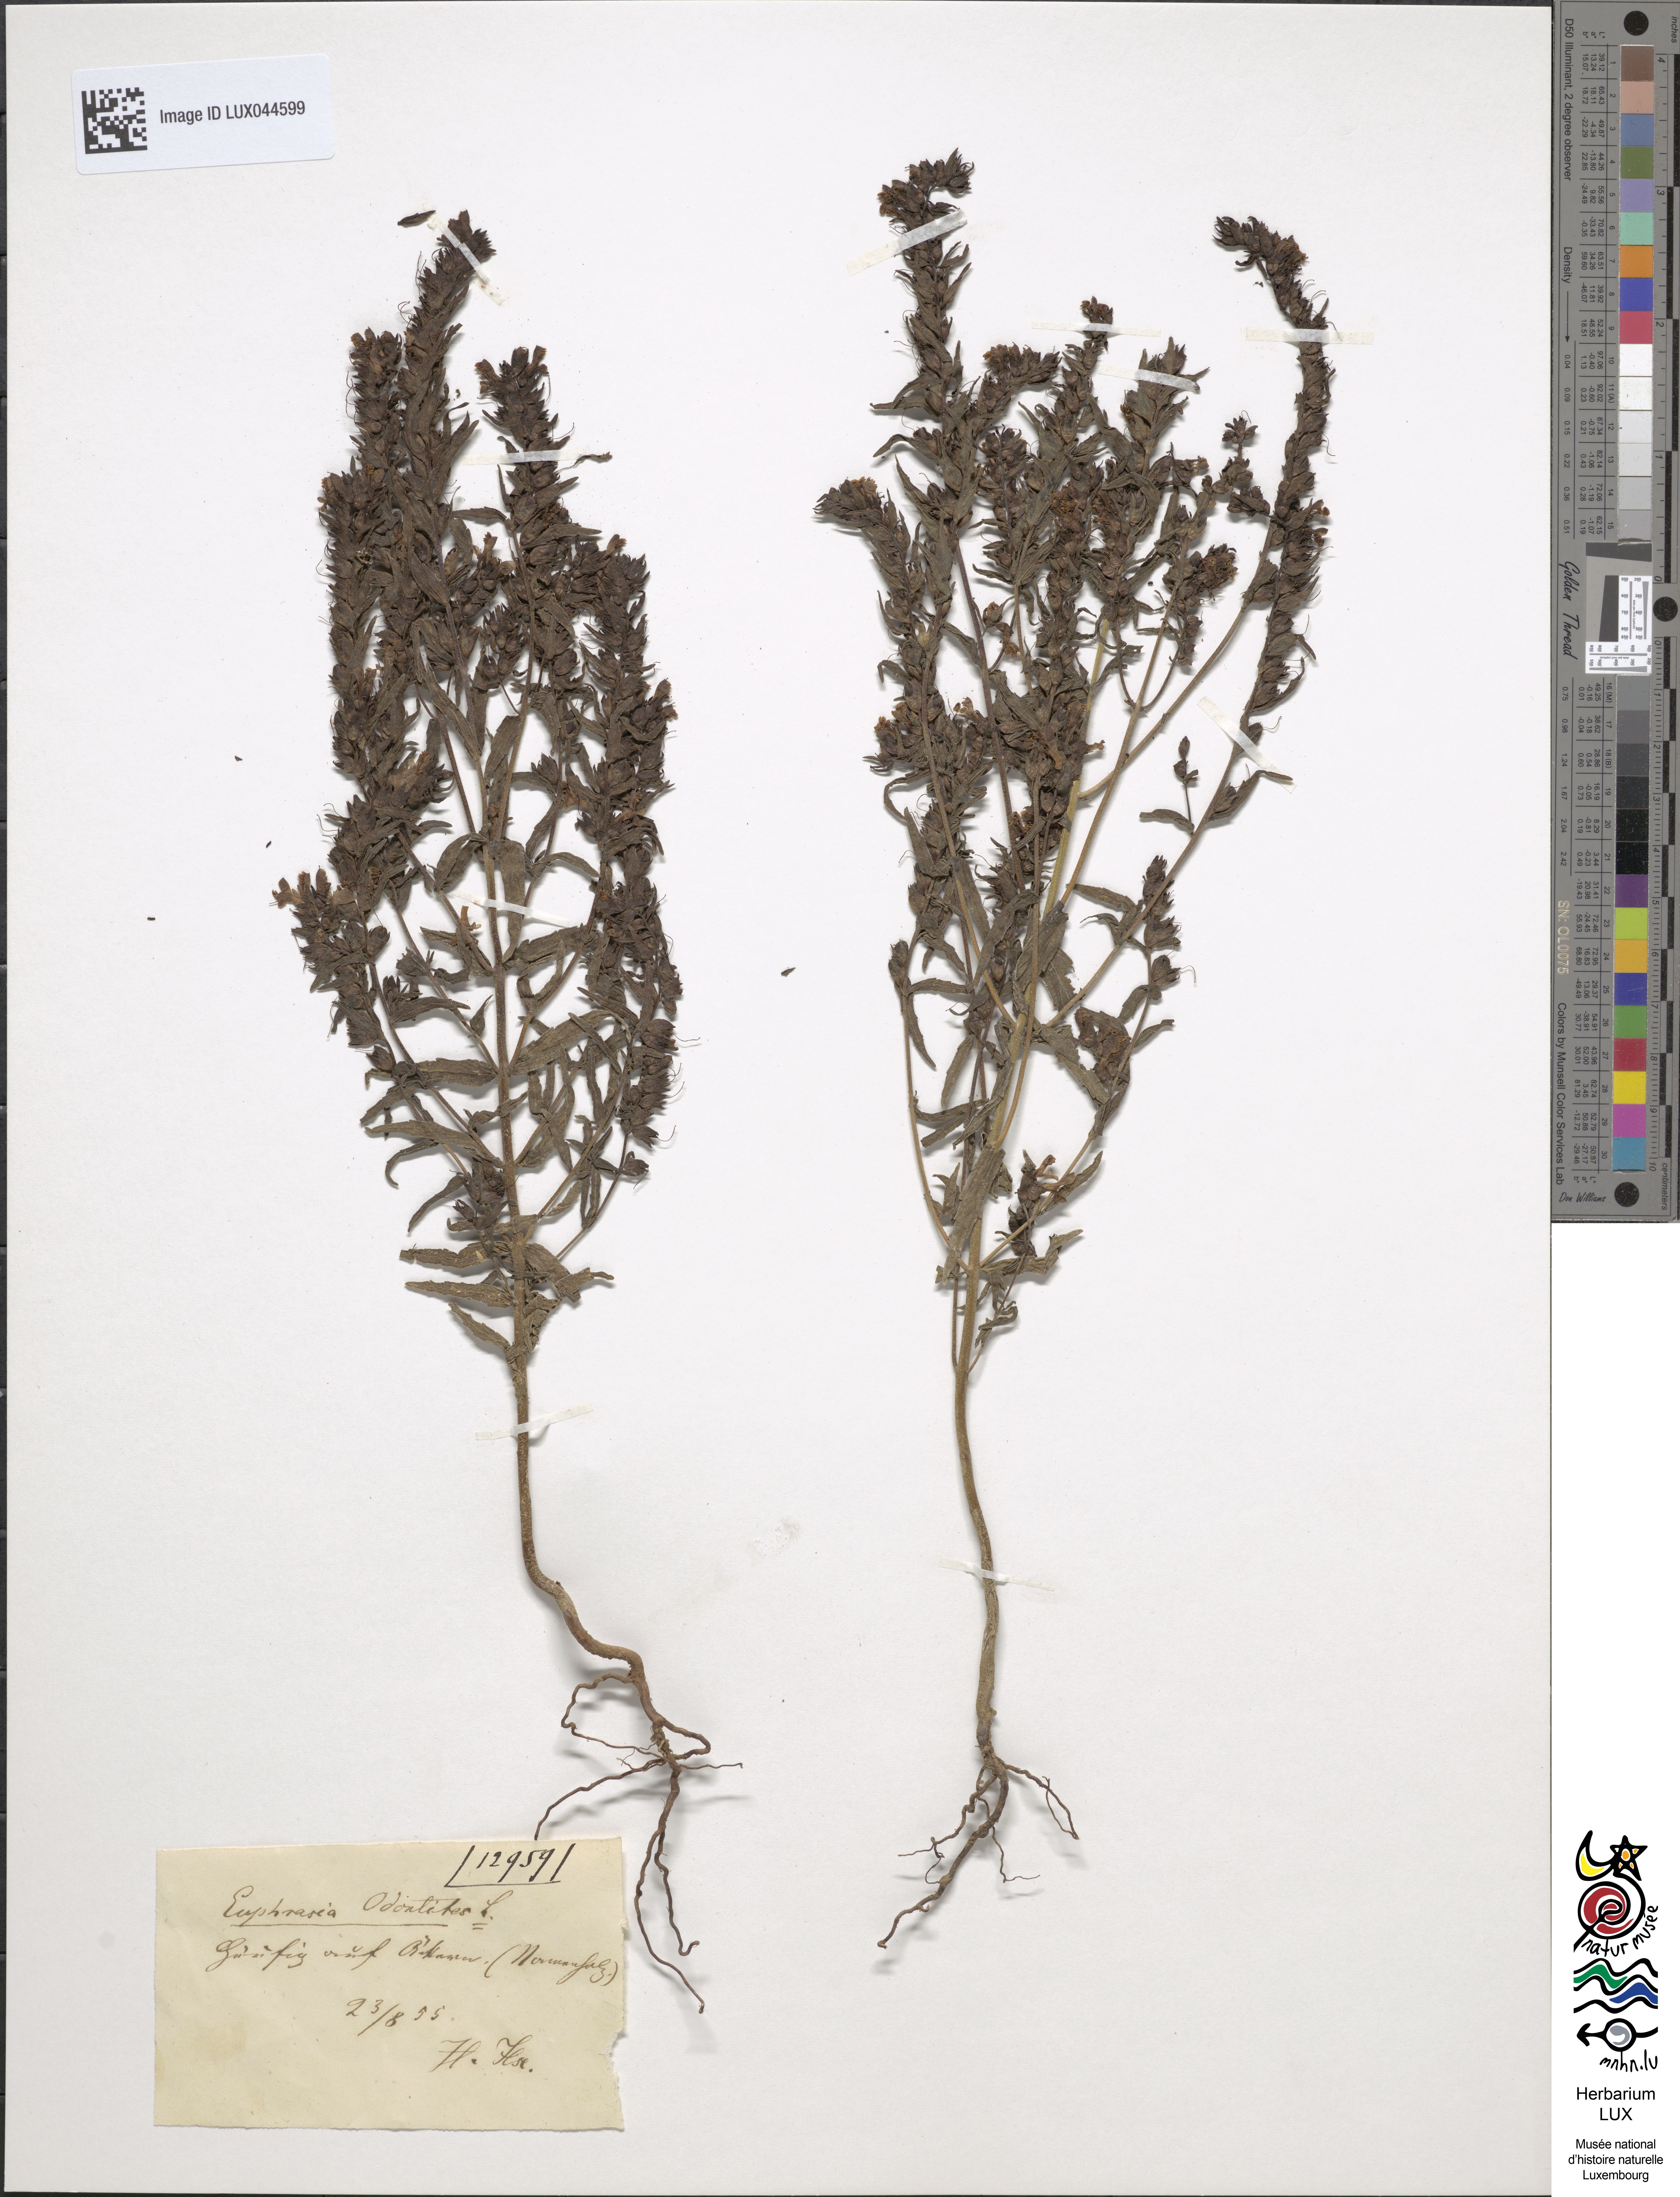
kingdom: Plantae
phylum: Tracheophyta
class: Magnoliopsida
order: Lamiales
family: Orobanchaceae
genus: Odontites
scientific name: Odontites vulgaris
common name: Broomrape
